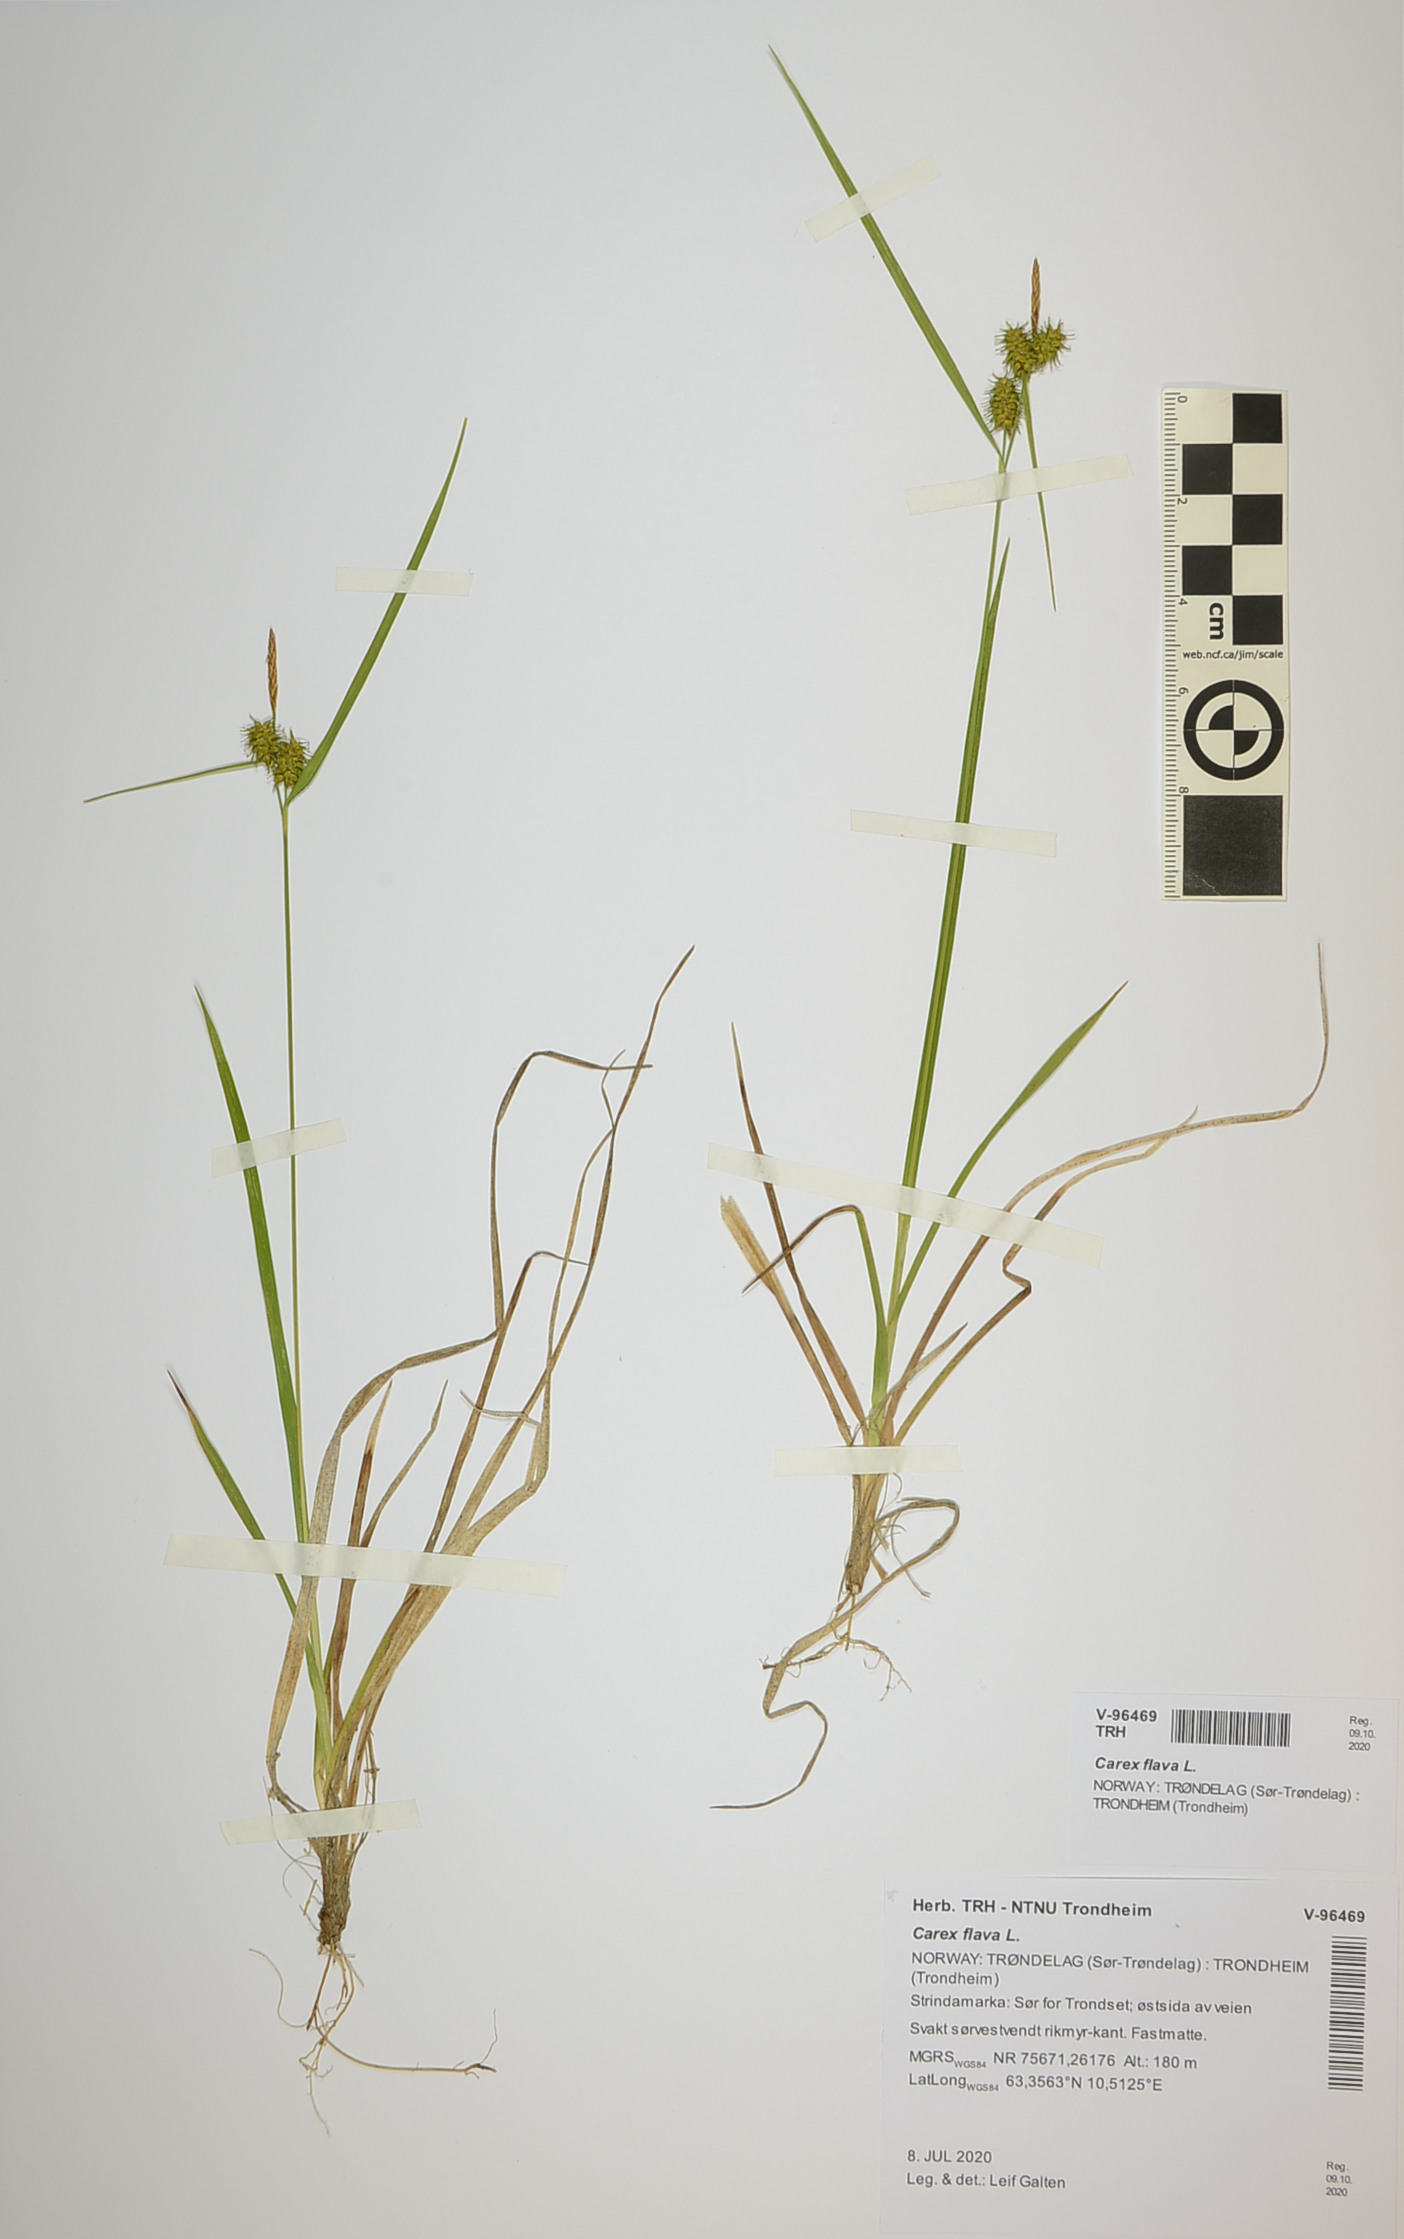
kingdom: Plantae
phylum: Tracheophyta
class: Liliopsida
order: Poales
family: Cyperaceae
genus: Carex
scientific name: Carex flava
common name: Large yellow-sedge
